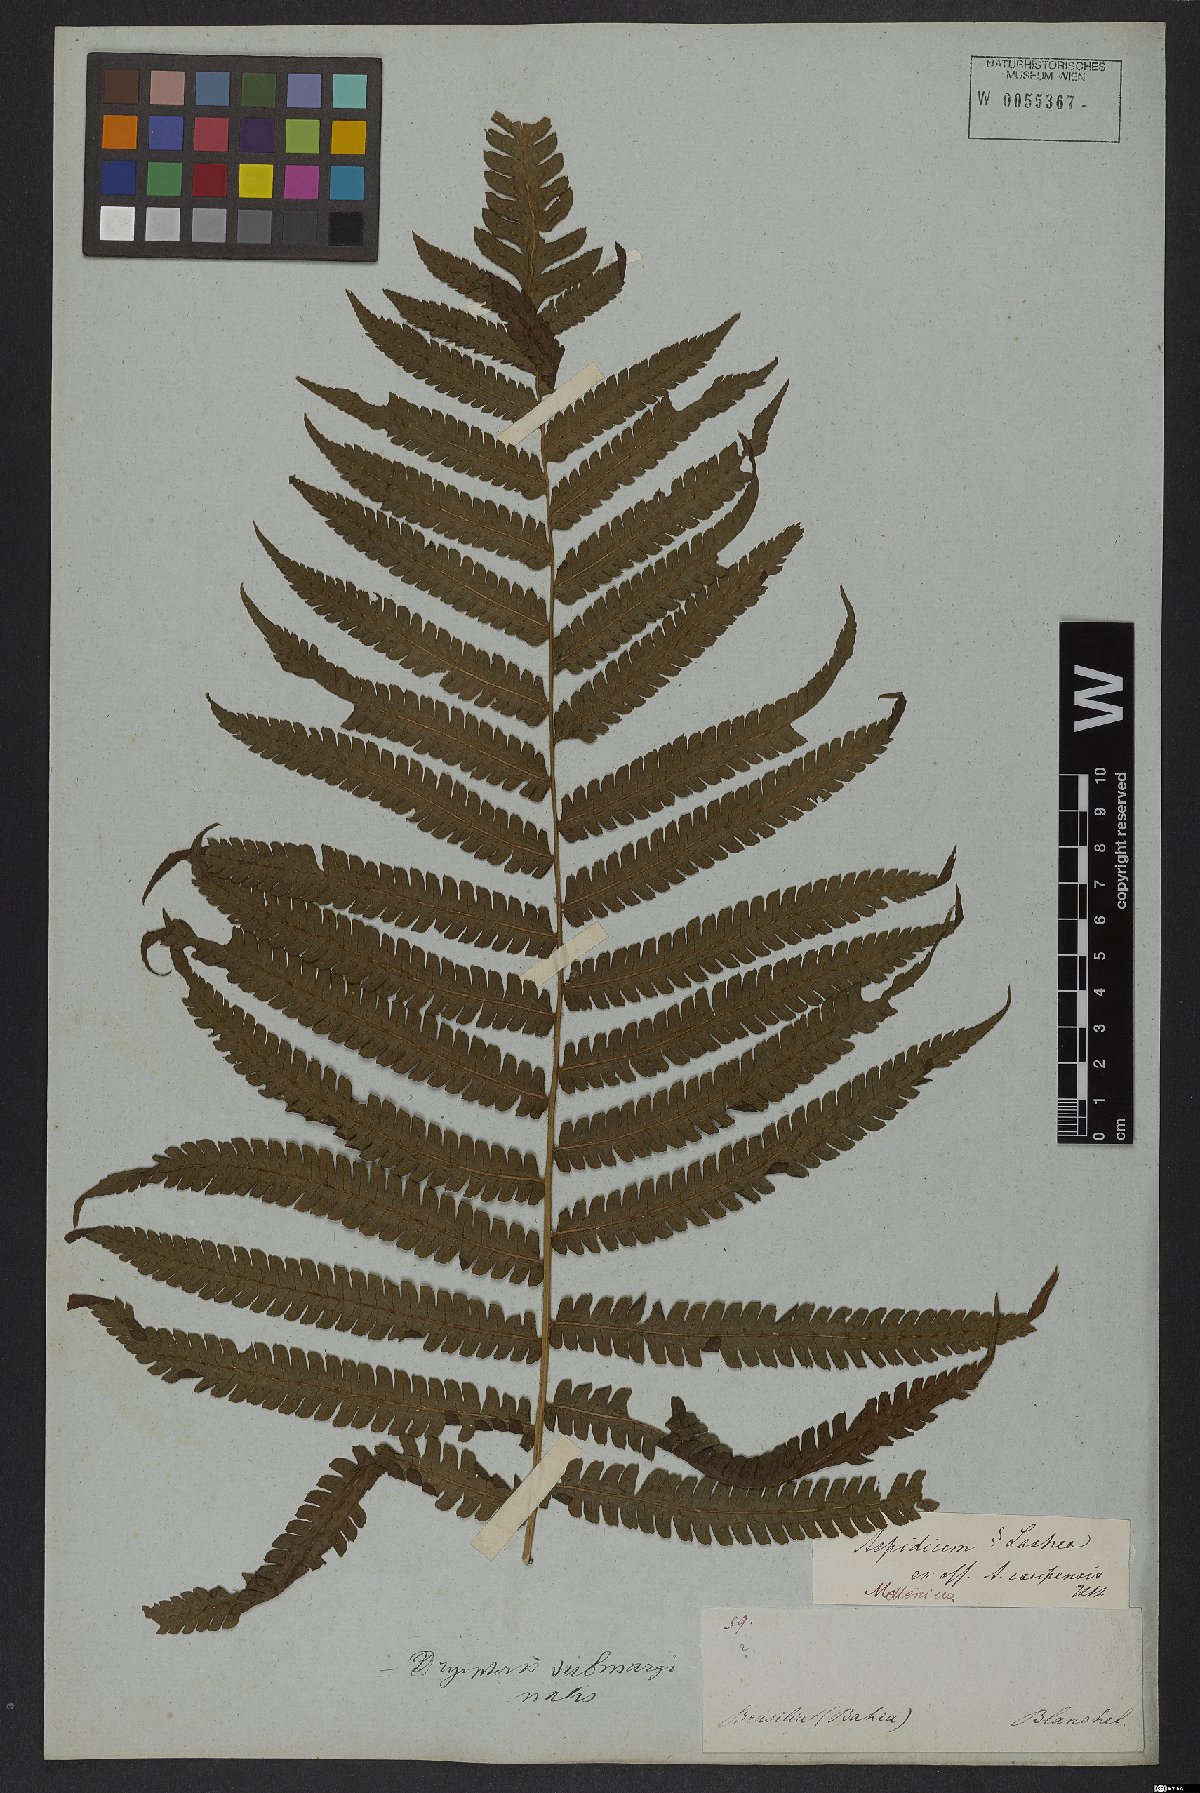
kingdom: Plantae
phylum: Tracheophyta
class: Polypodiopsida
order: Polypodiales
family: Dryopteridaceae
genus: Ctenitis
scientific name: Ctenitis submarginalis
